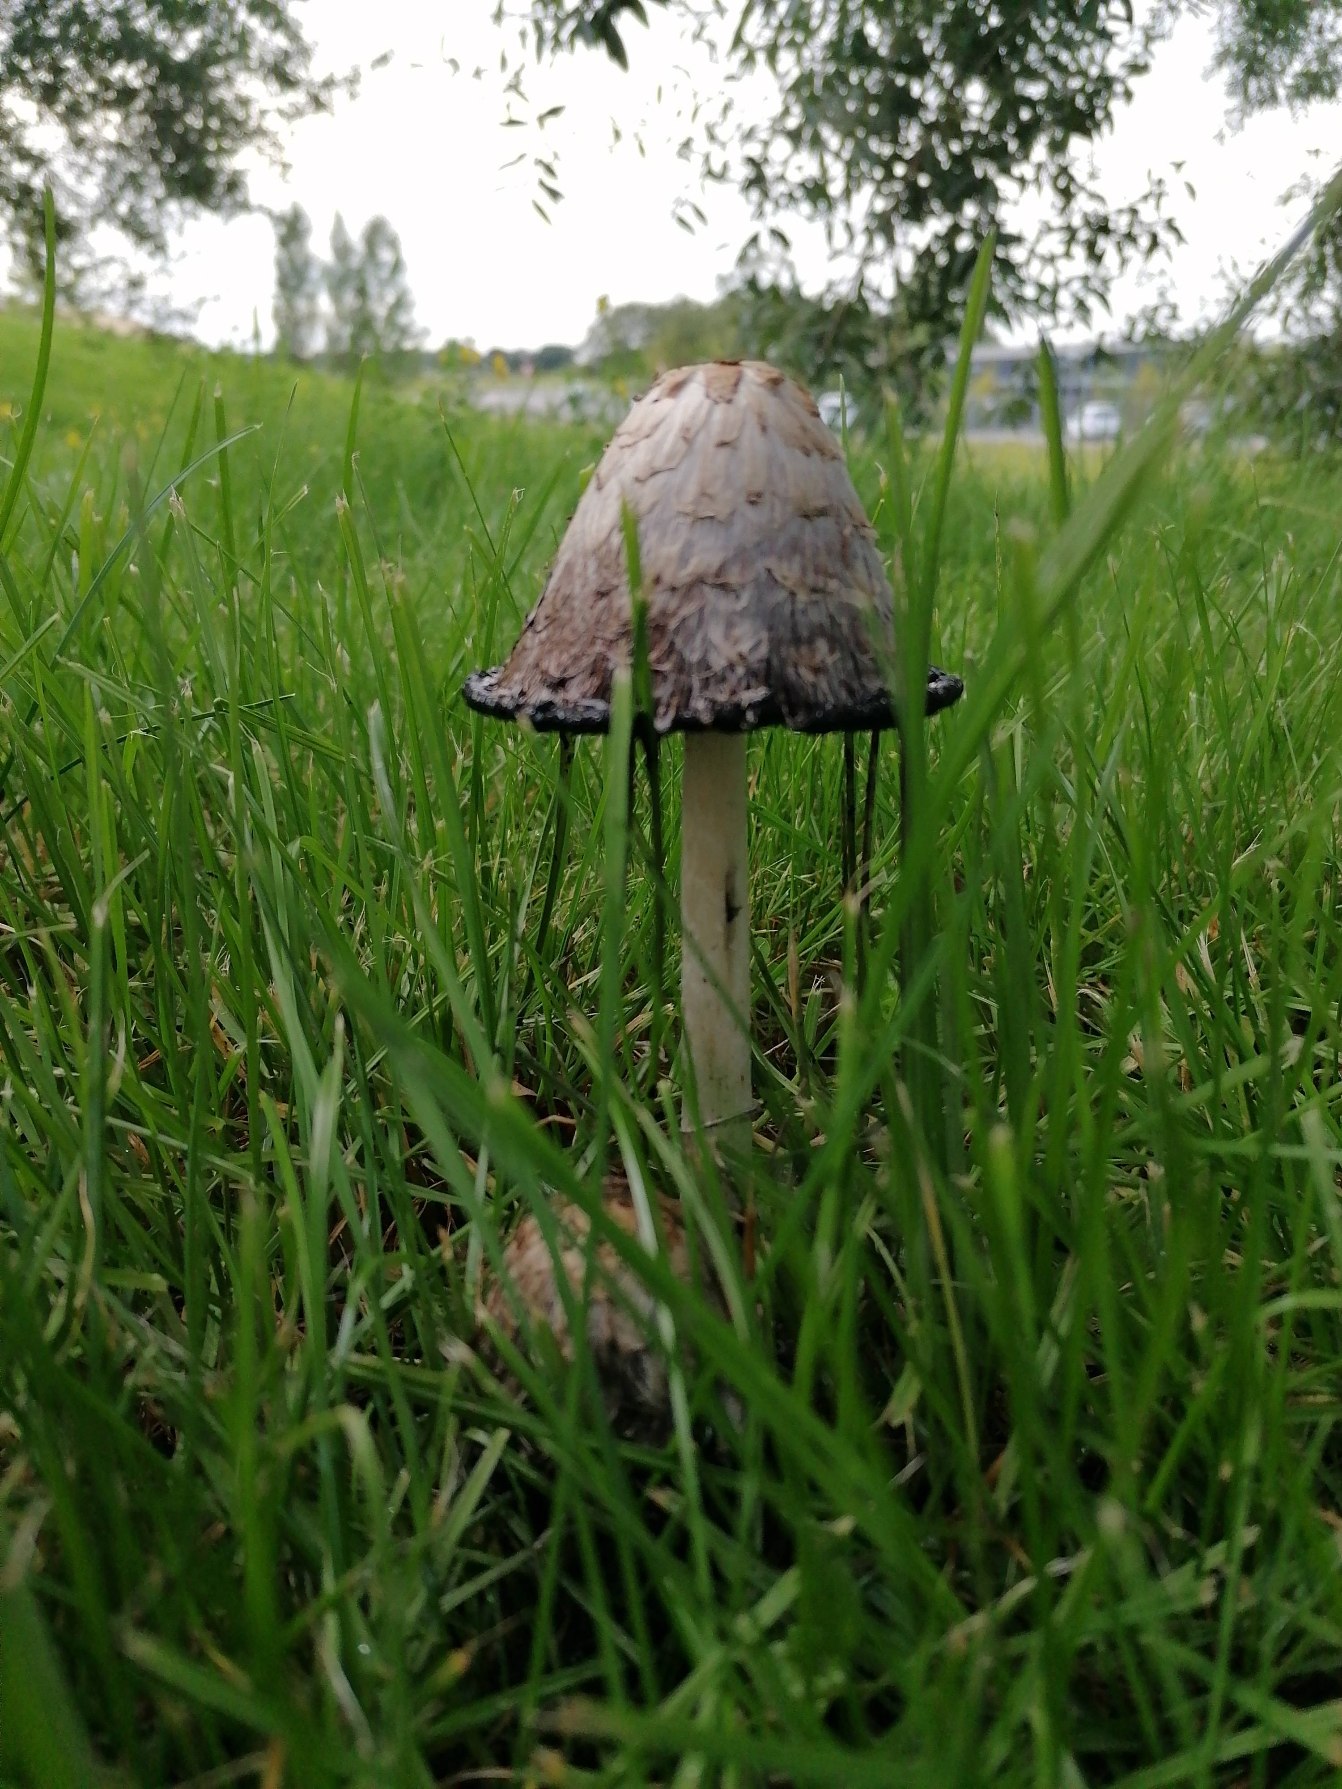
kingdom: Fungi
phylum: Basidiomycota
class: Agaricomycetes
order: Agaricales
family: Agaricaceae
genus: Coprinus
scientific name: Coprinus comatus
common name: Stor parykhat
